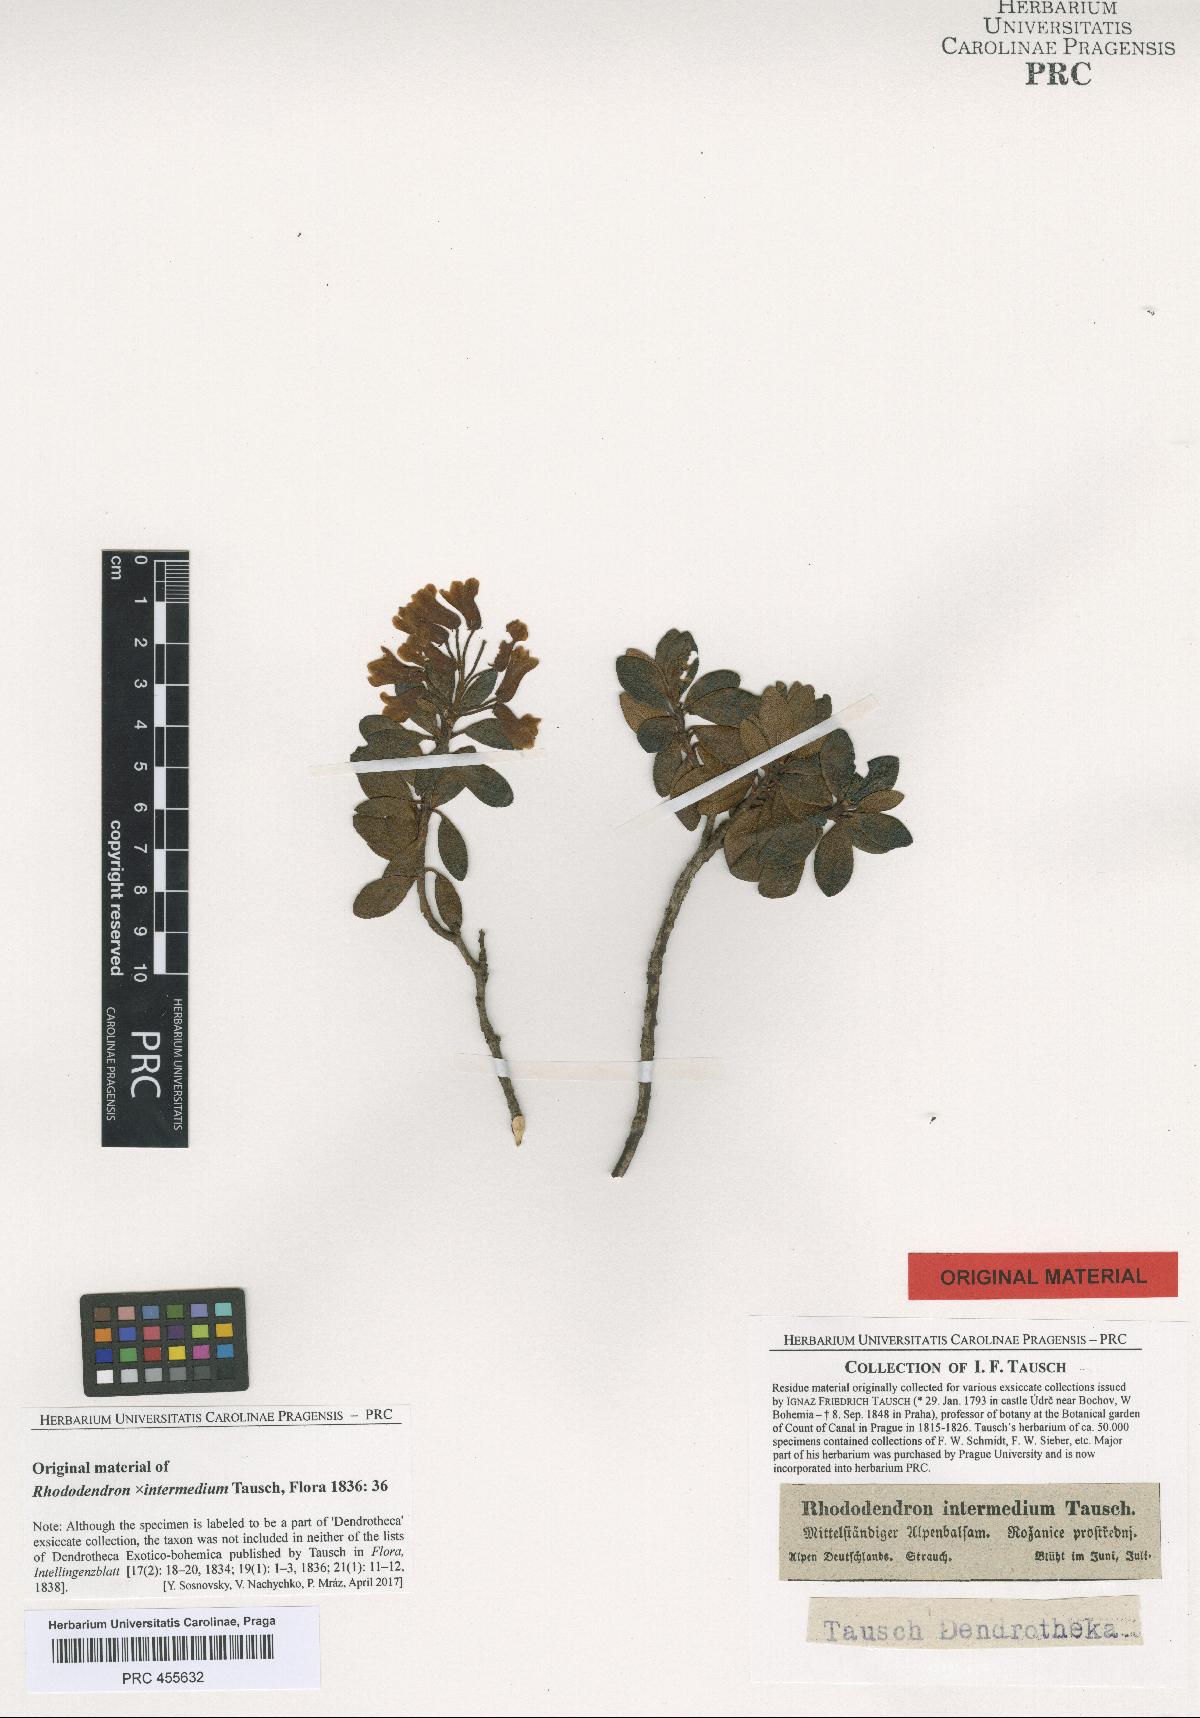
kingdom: Plantae
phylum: Tracheophyta
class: Magnoliopsida
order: Ericales
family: Ericaceae
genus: Rhododendron
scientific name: Rhododendron intermedium
